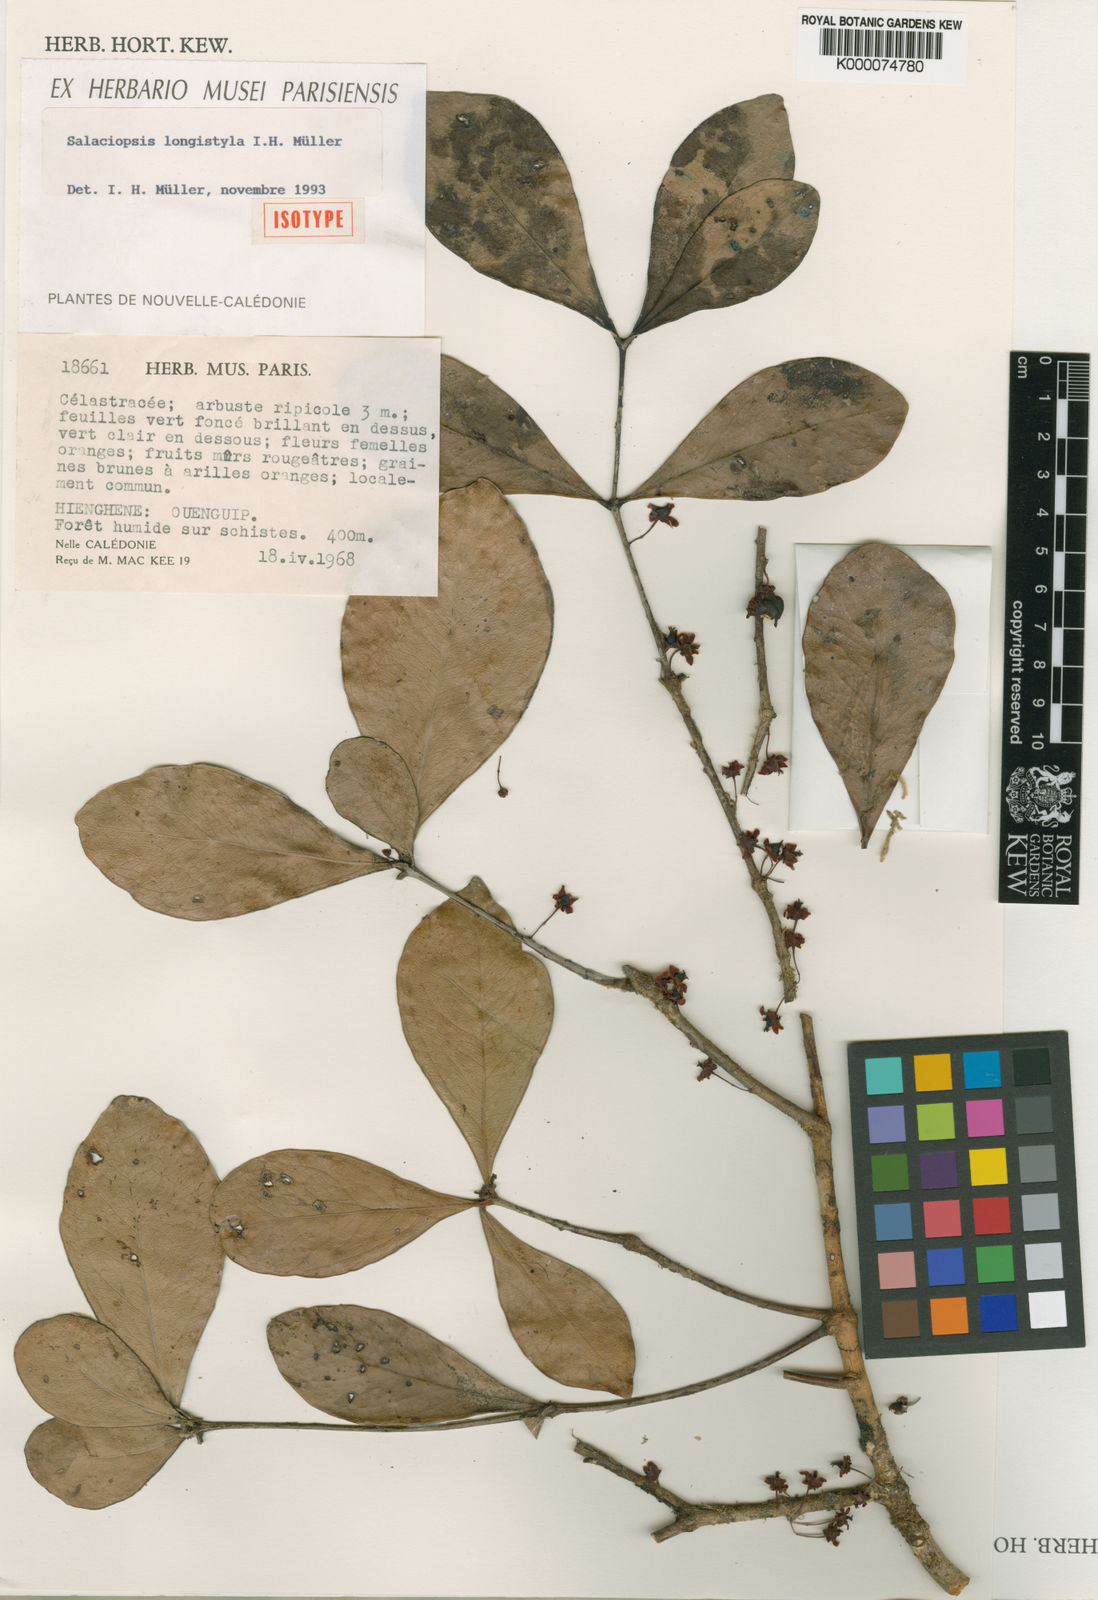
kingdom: Plantae
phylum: Tracheophyta
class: Magnoliopsida
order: Celastrales
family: Celastraceae
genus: Salaciopsis
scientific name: Salaciopsis
